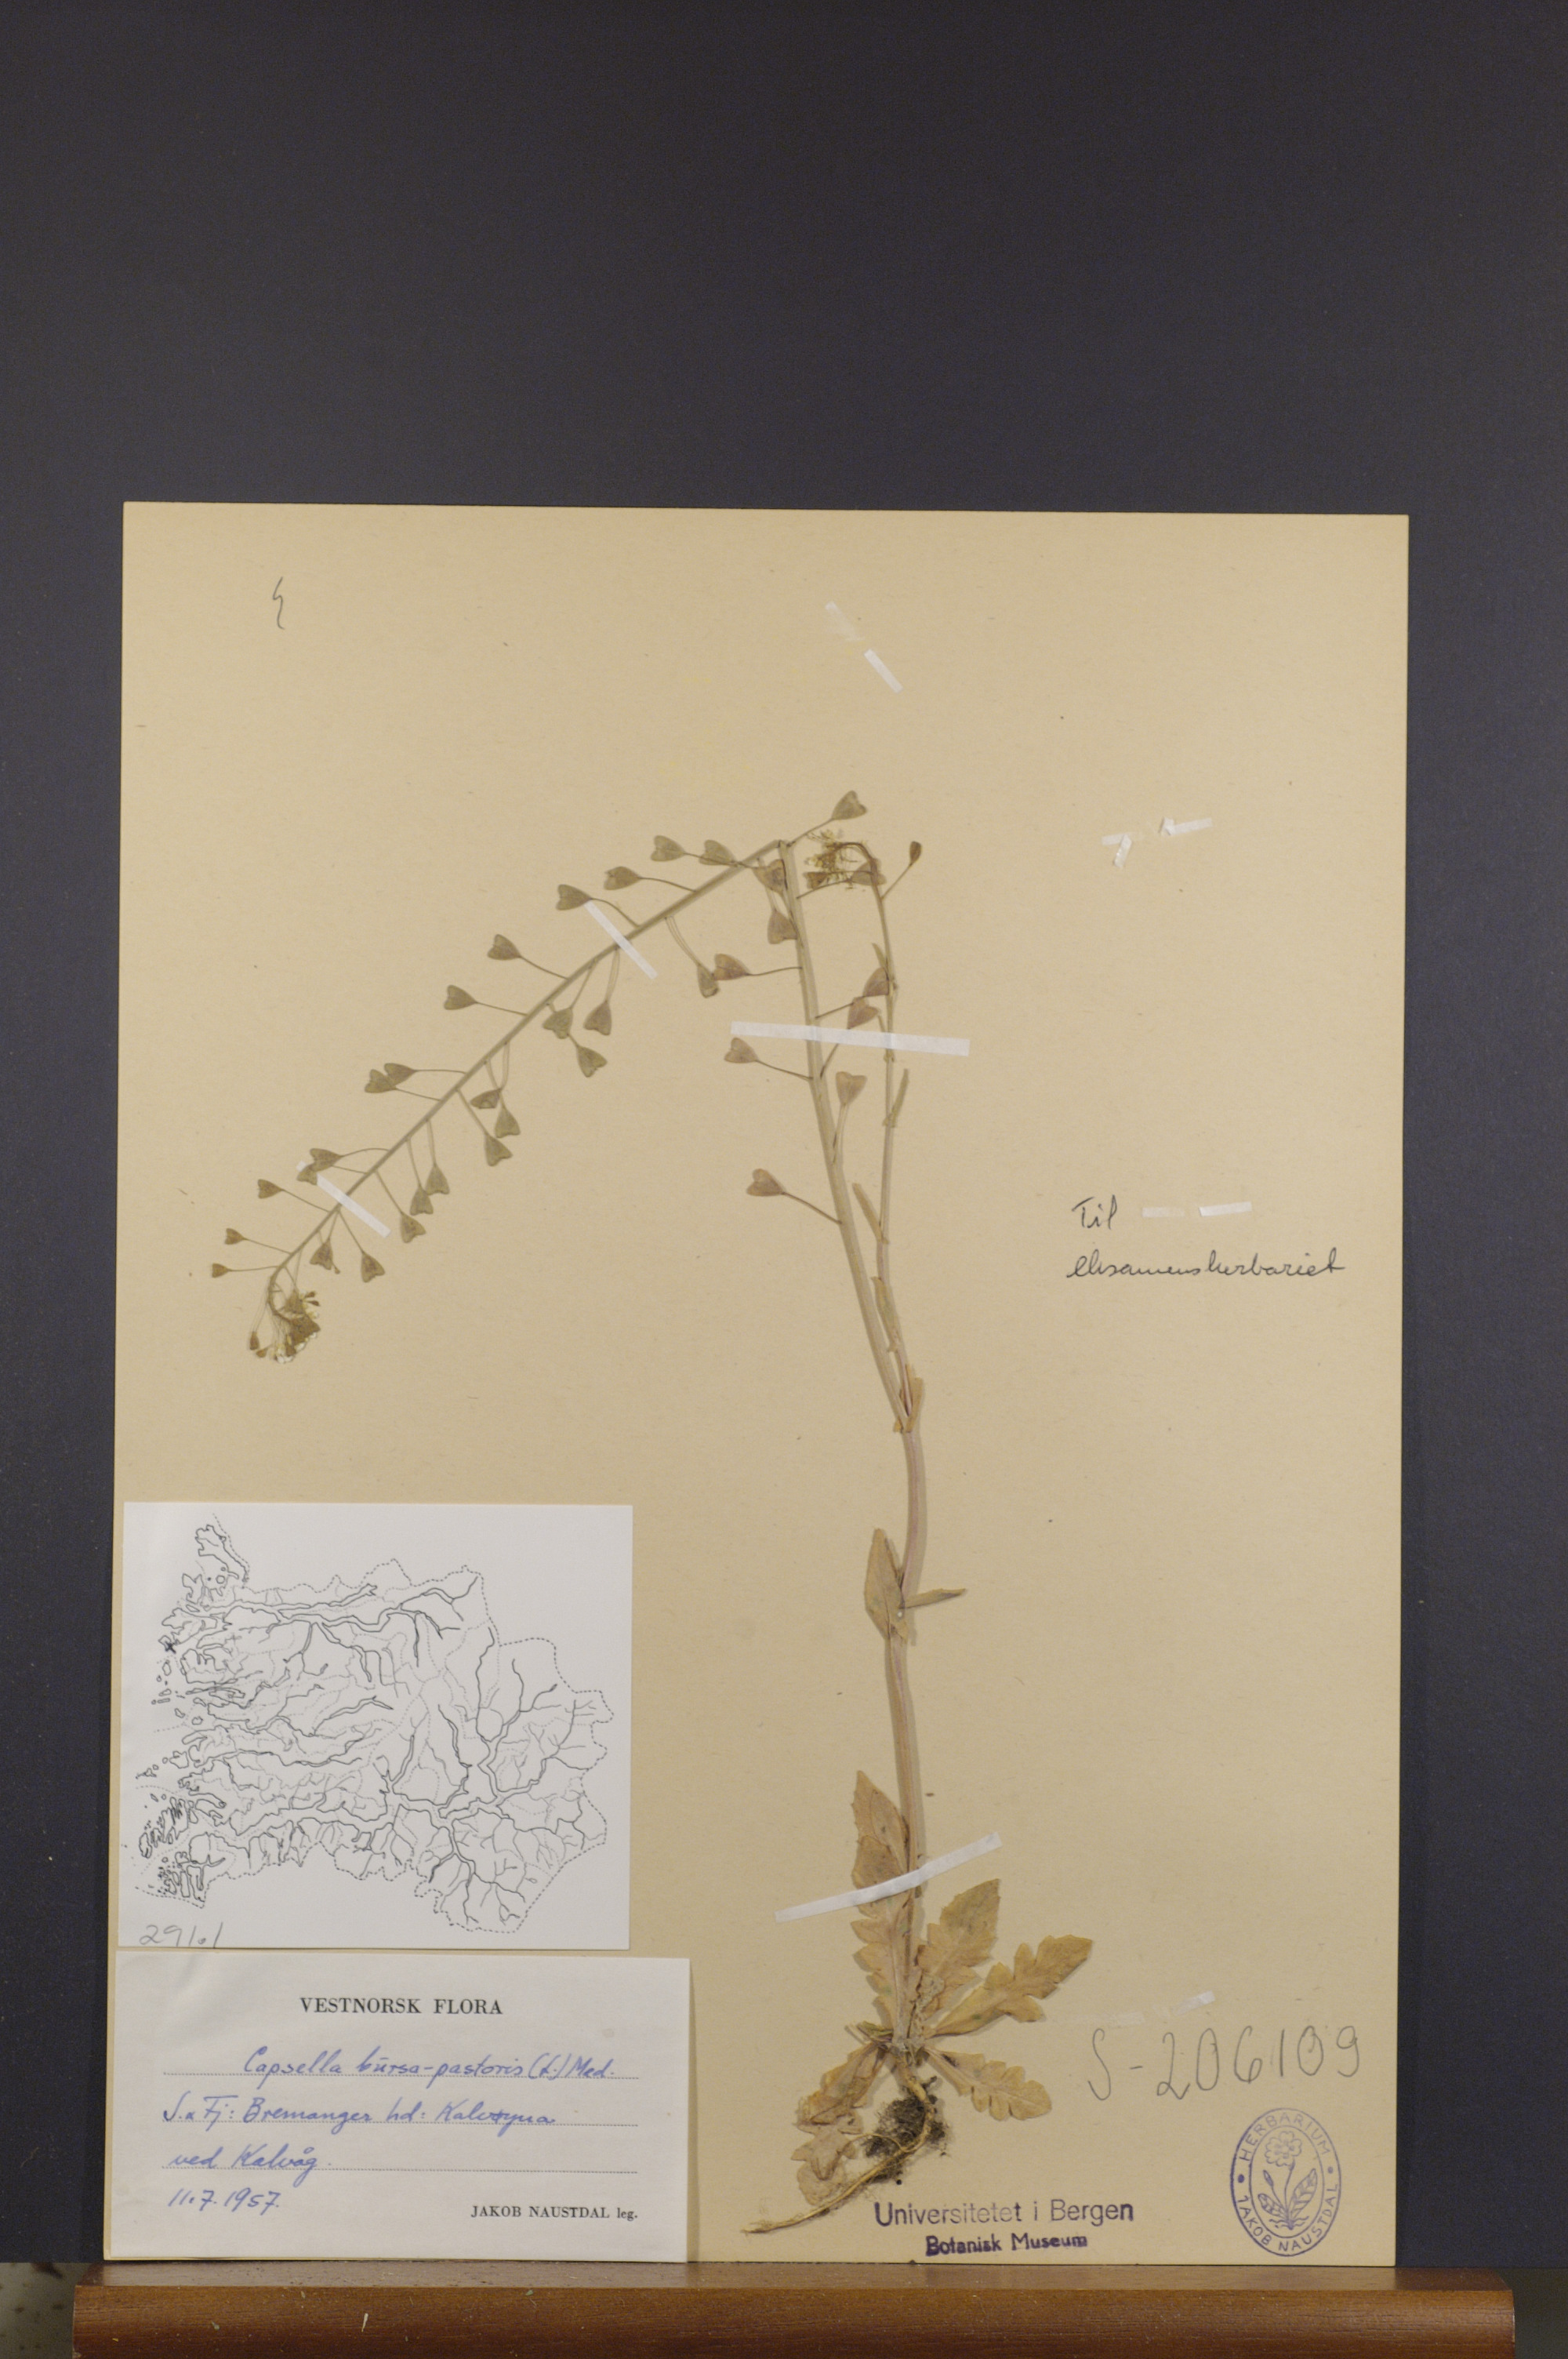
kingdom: Plantae
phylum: Tracheophyta
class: Magnoliopsida
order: Brassicales
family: Brassicaceae
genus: Capsella
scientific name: Capsella bursa-pastoris
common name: Shepherd's purse
